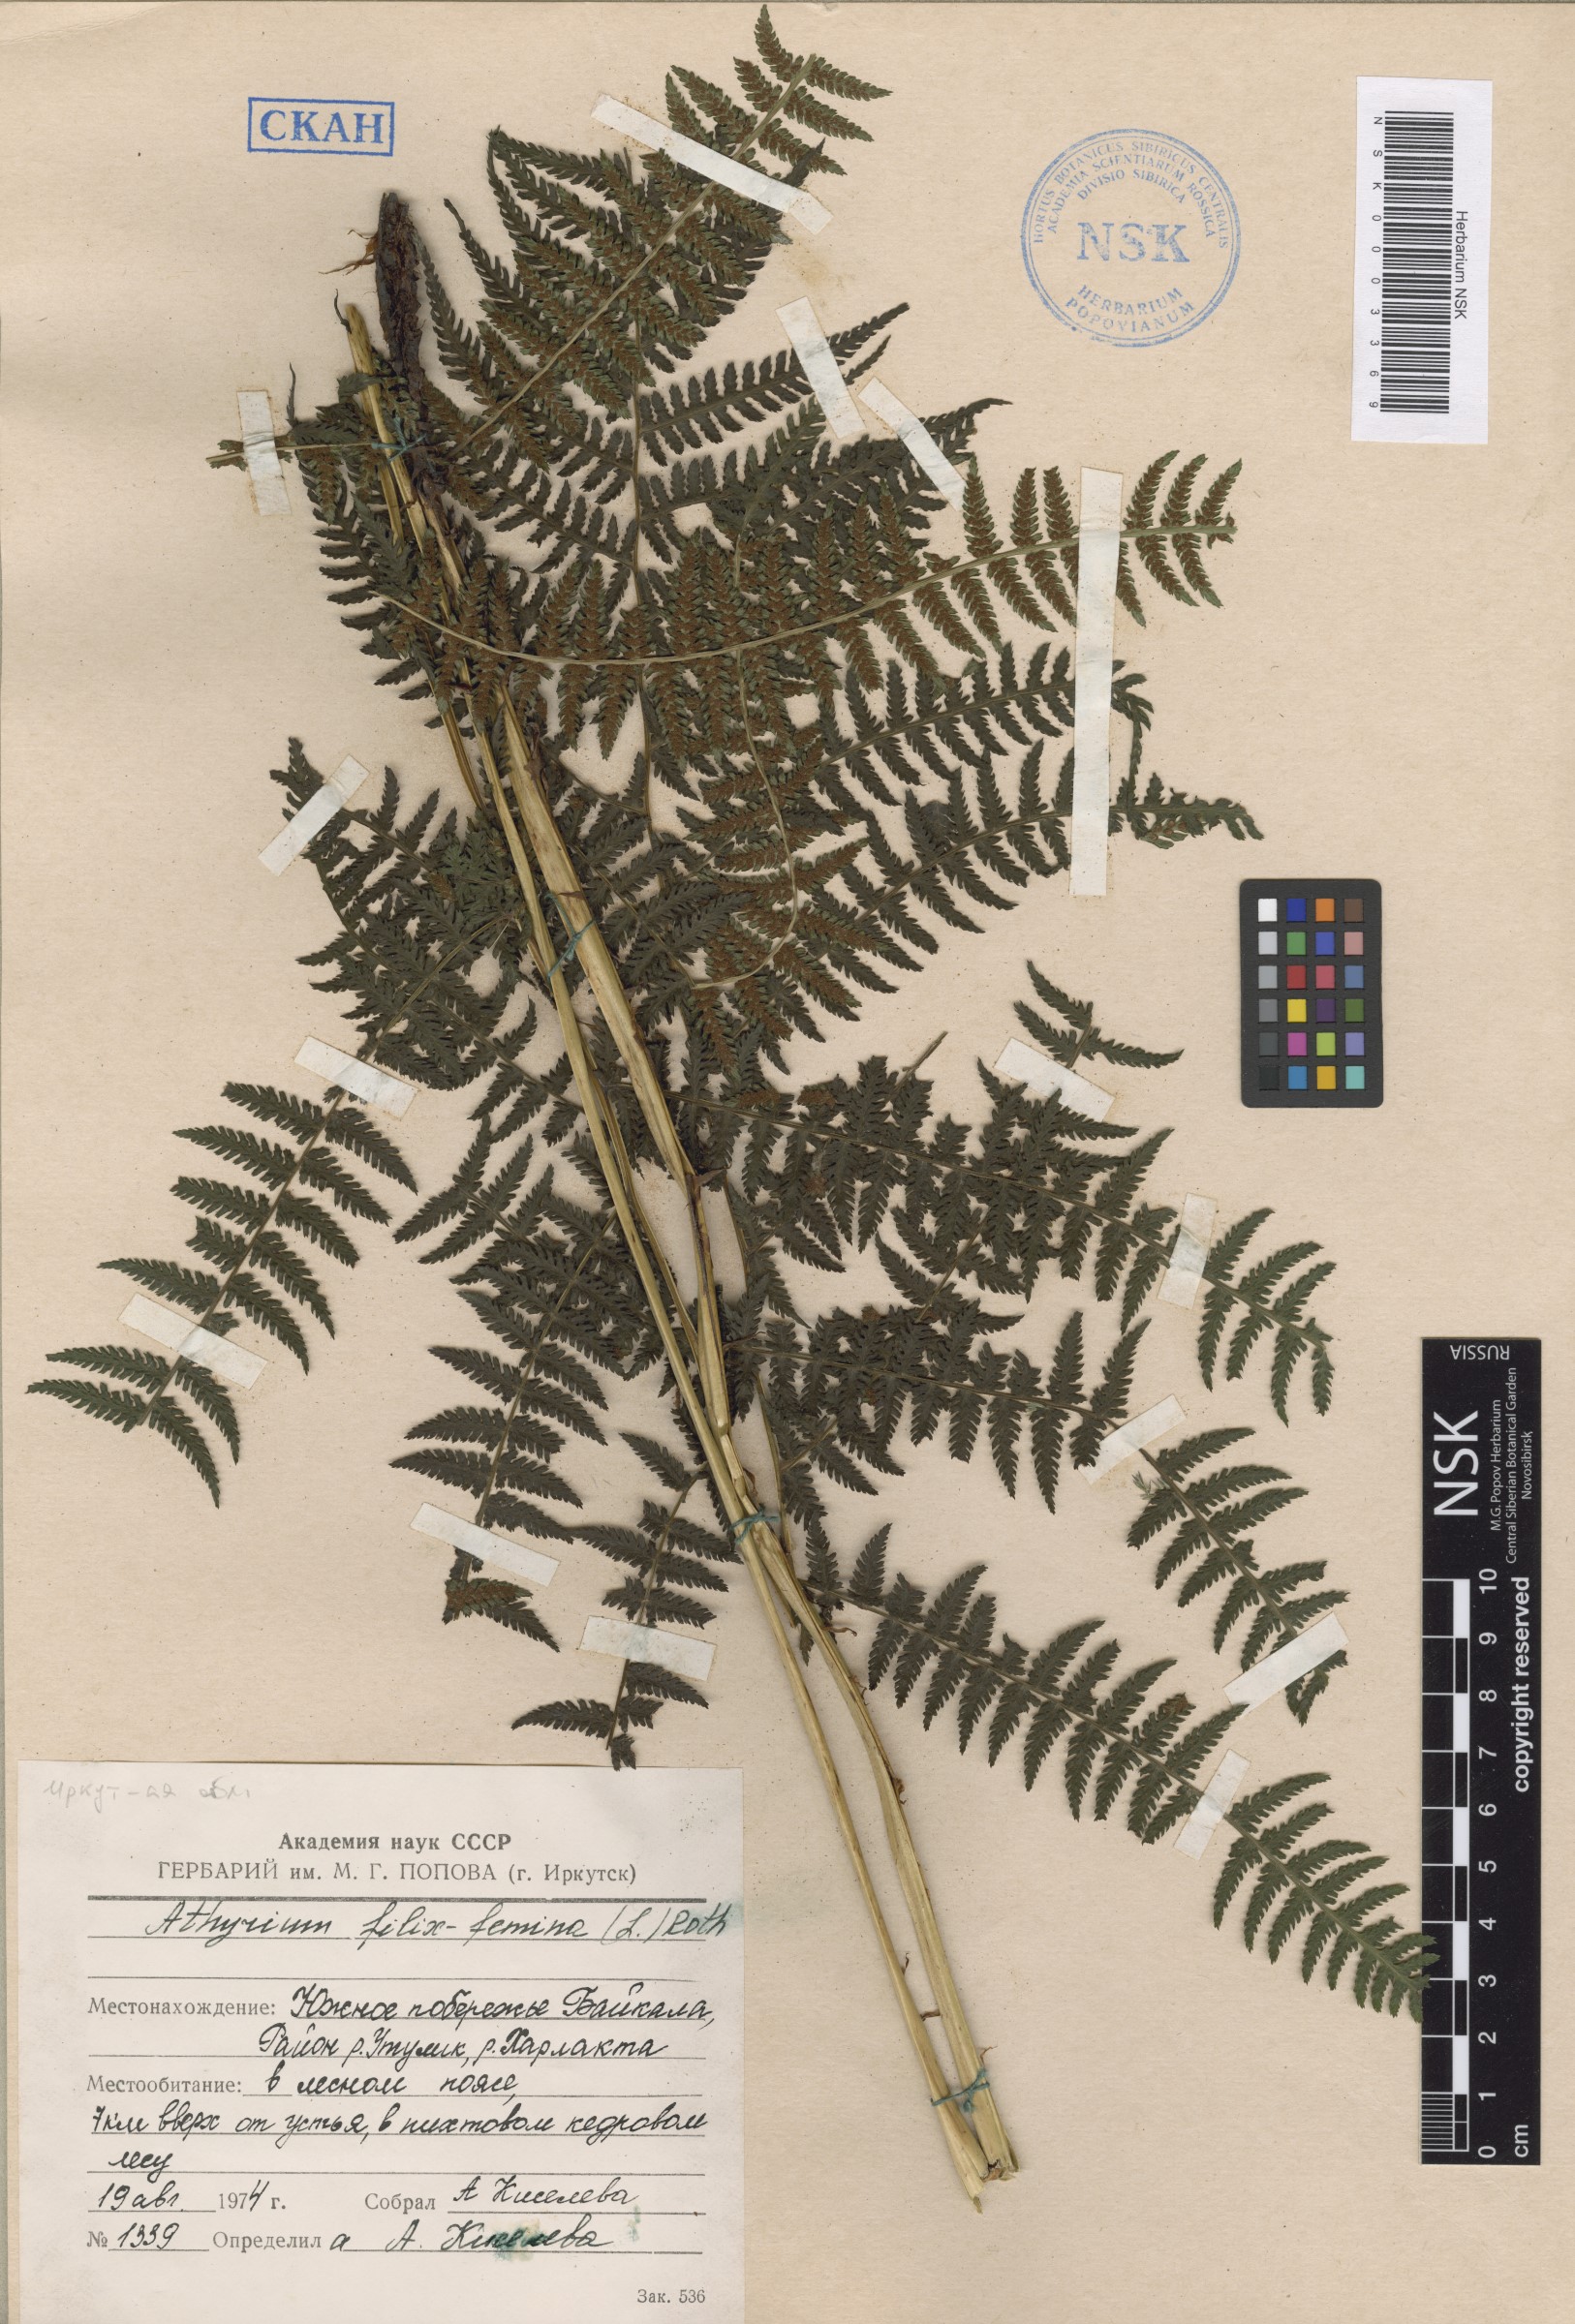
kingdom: Plantae
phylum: Tracheophyta
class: Polypodiopsida
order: Polypodiales
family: Athyriaceae
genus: Athyrium
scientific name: Athyrium filix-femina
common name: Lady fern
